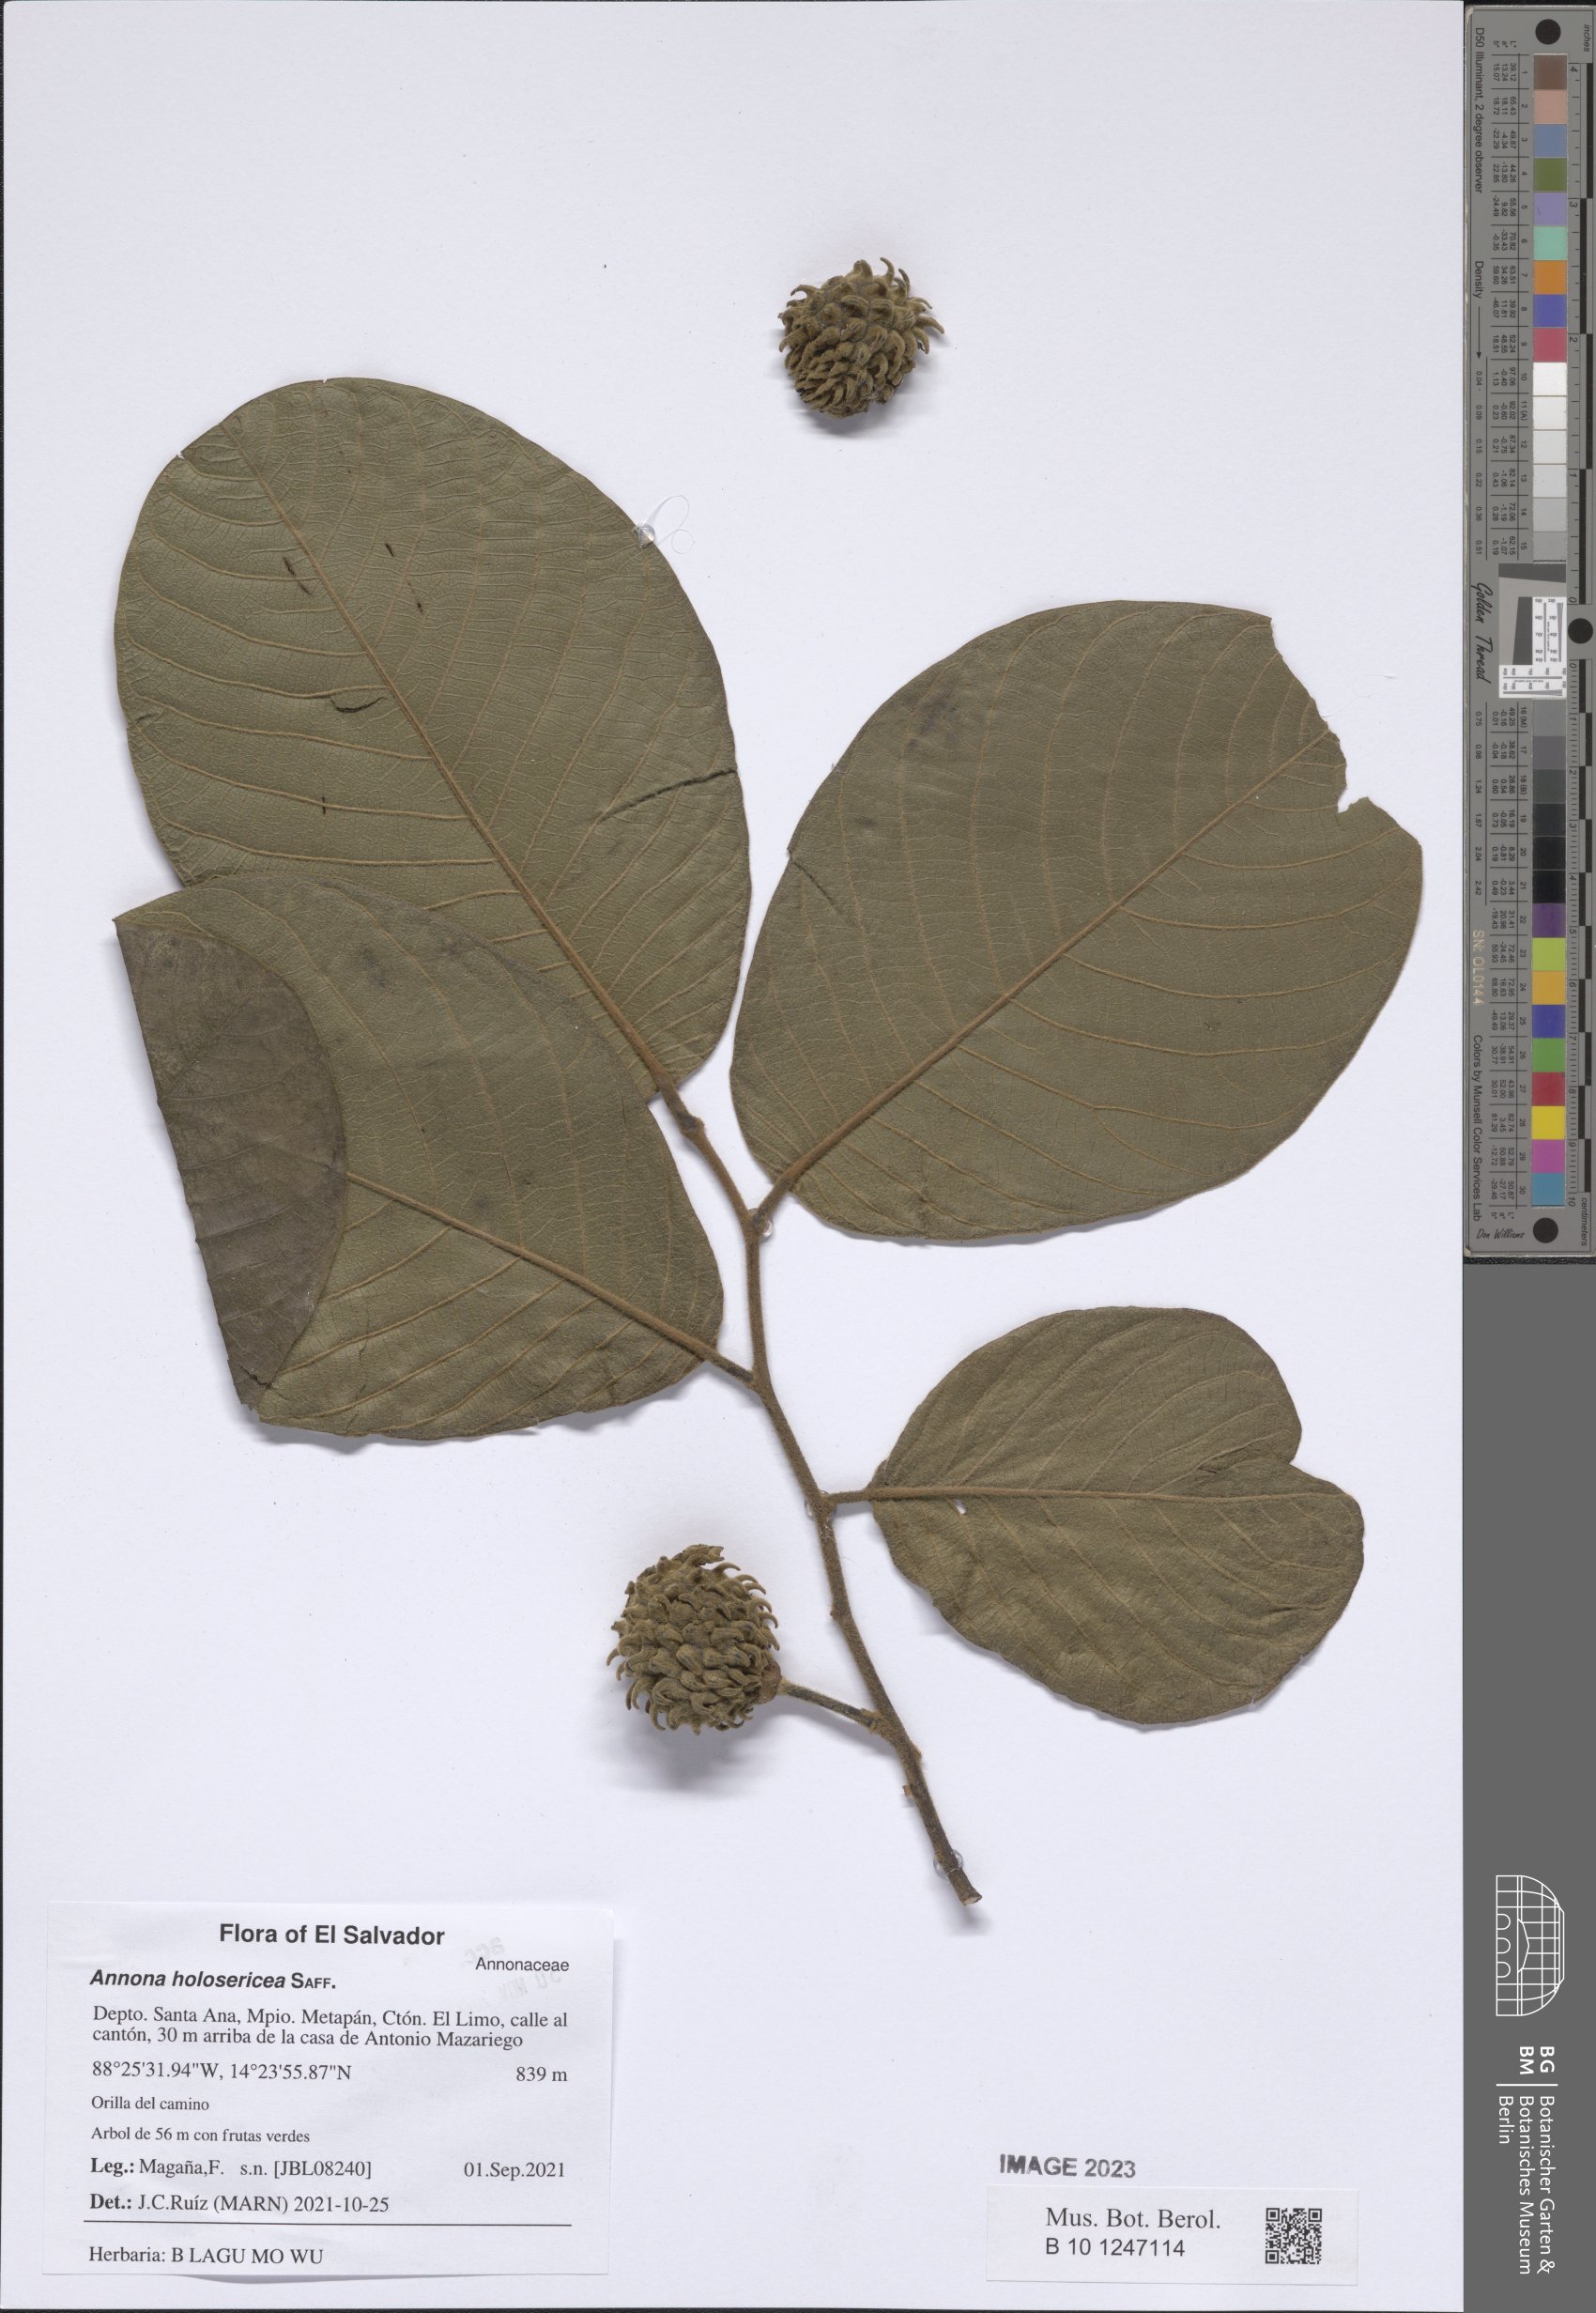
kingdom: Plantae
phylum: Tracheophyta
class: Magnoliopsida
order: Magnoliales
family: Annonaceae
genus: Annona
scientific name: Annona holosericea
